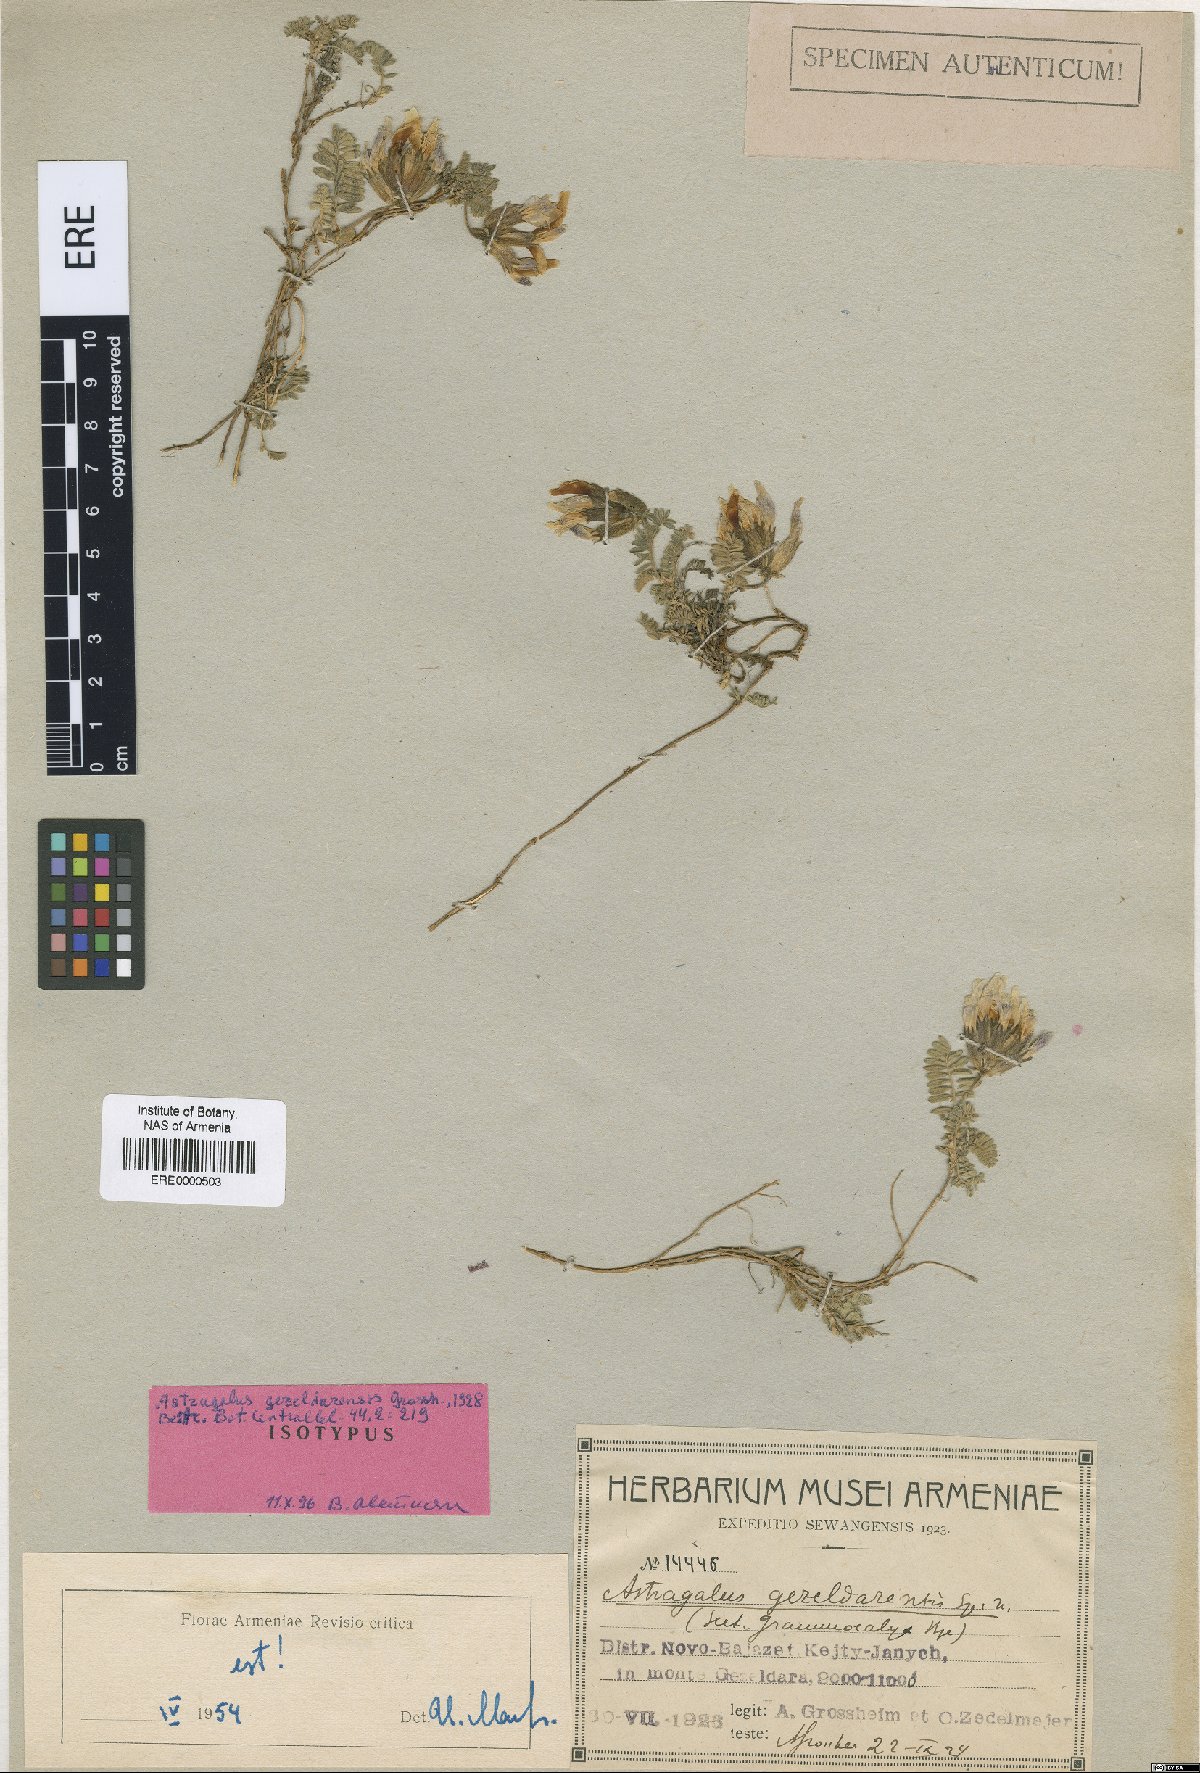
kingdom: Plantae
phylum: Tracheophyta
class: Magnoliopsida
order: Fabales
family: Fabaceae
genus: Astragalus
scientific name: Astragalus lineatus
